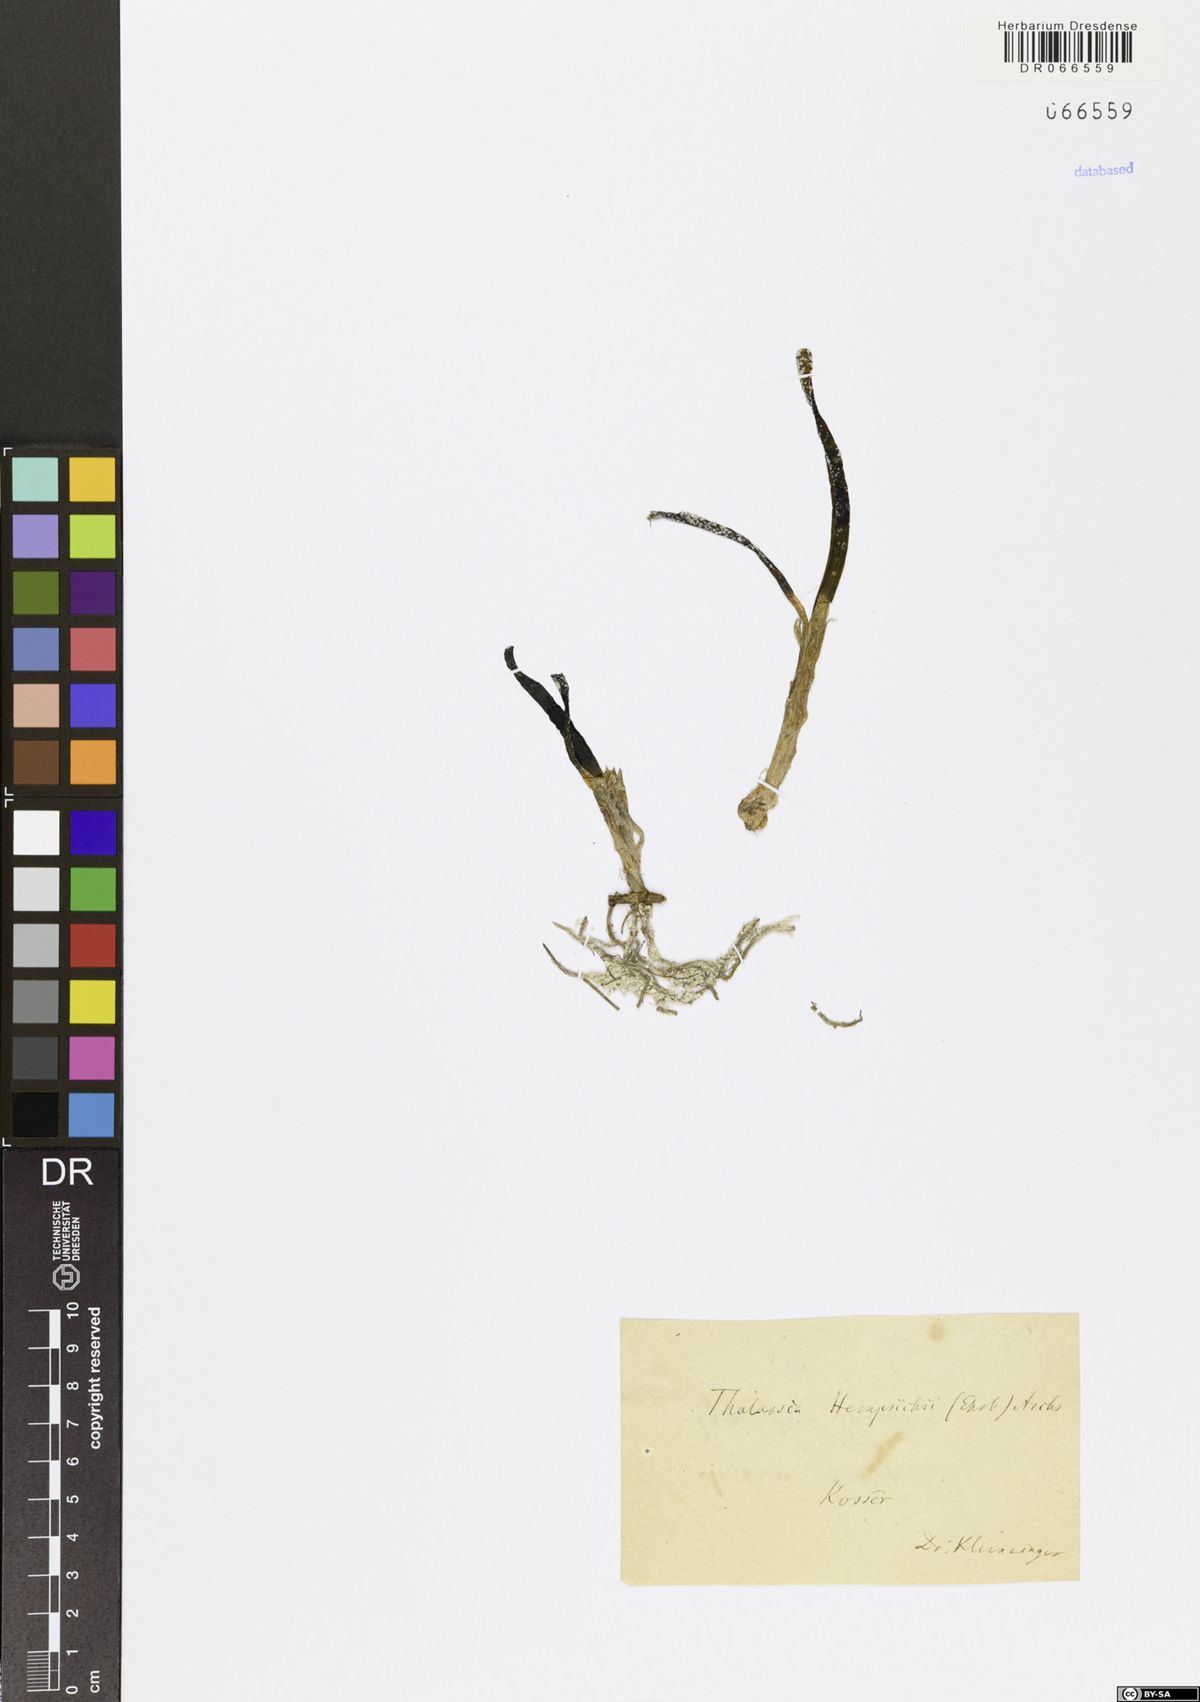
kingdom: Plantae
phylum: Tracheophyta
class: Liliopsida
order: Alismatales
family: Hydrocharitaceae
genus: Thalassia
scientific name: Thalassia hemprichii
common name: Species code: th
